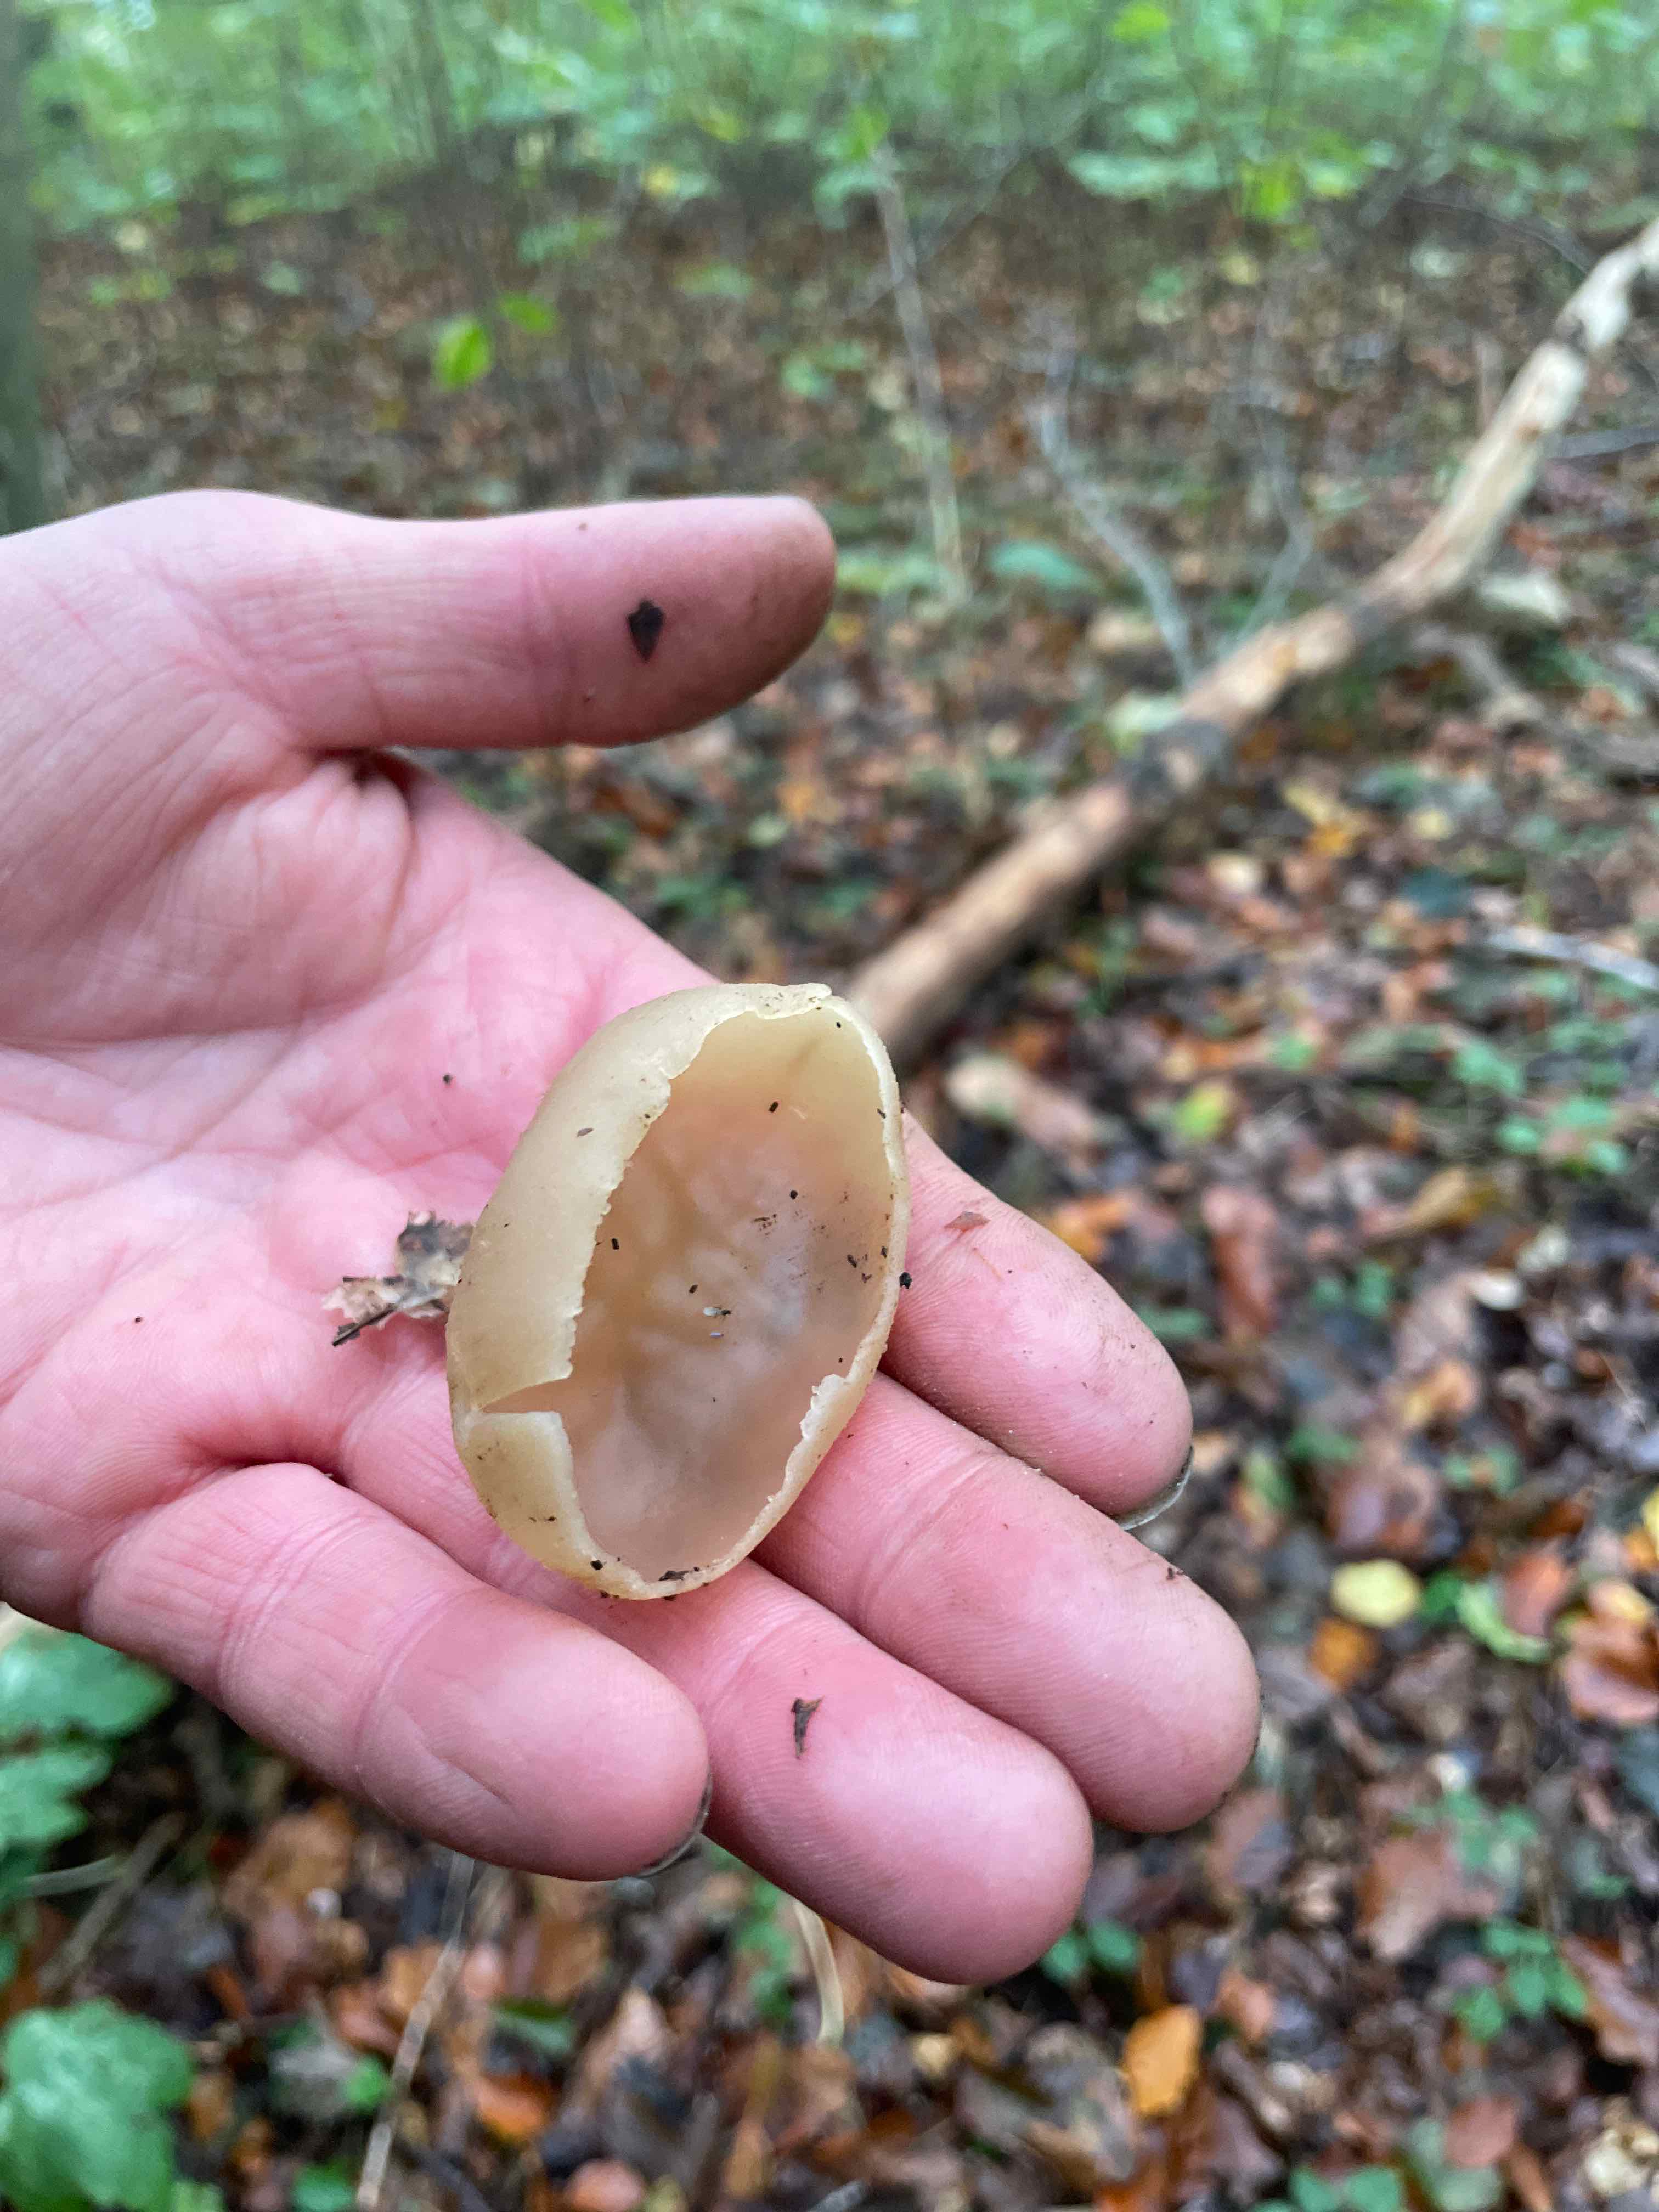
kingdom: Fungi
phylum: Ascomycota
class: Pezizomycetes
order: Pezizales
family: Pezizaceae
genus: Peziza
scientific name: Peziza
